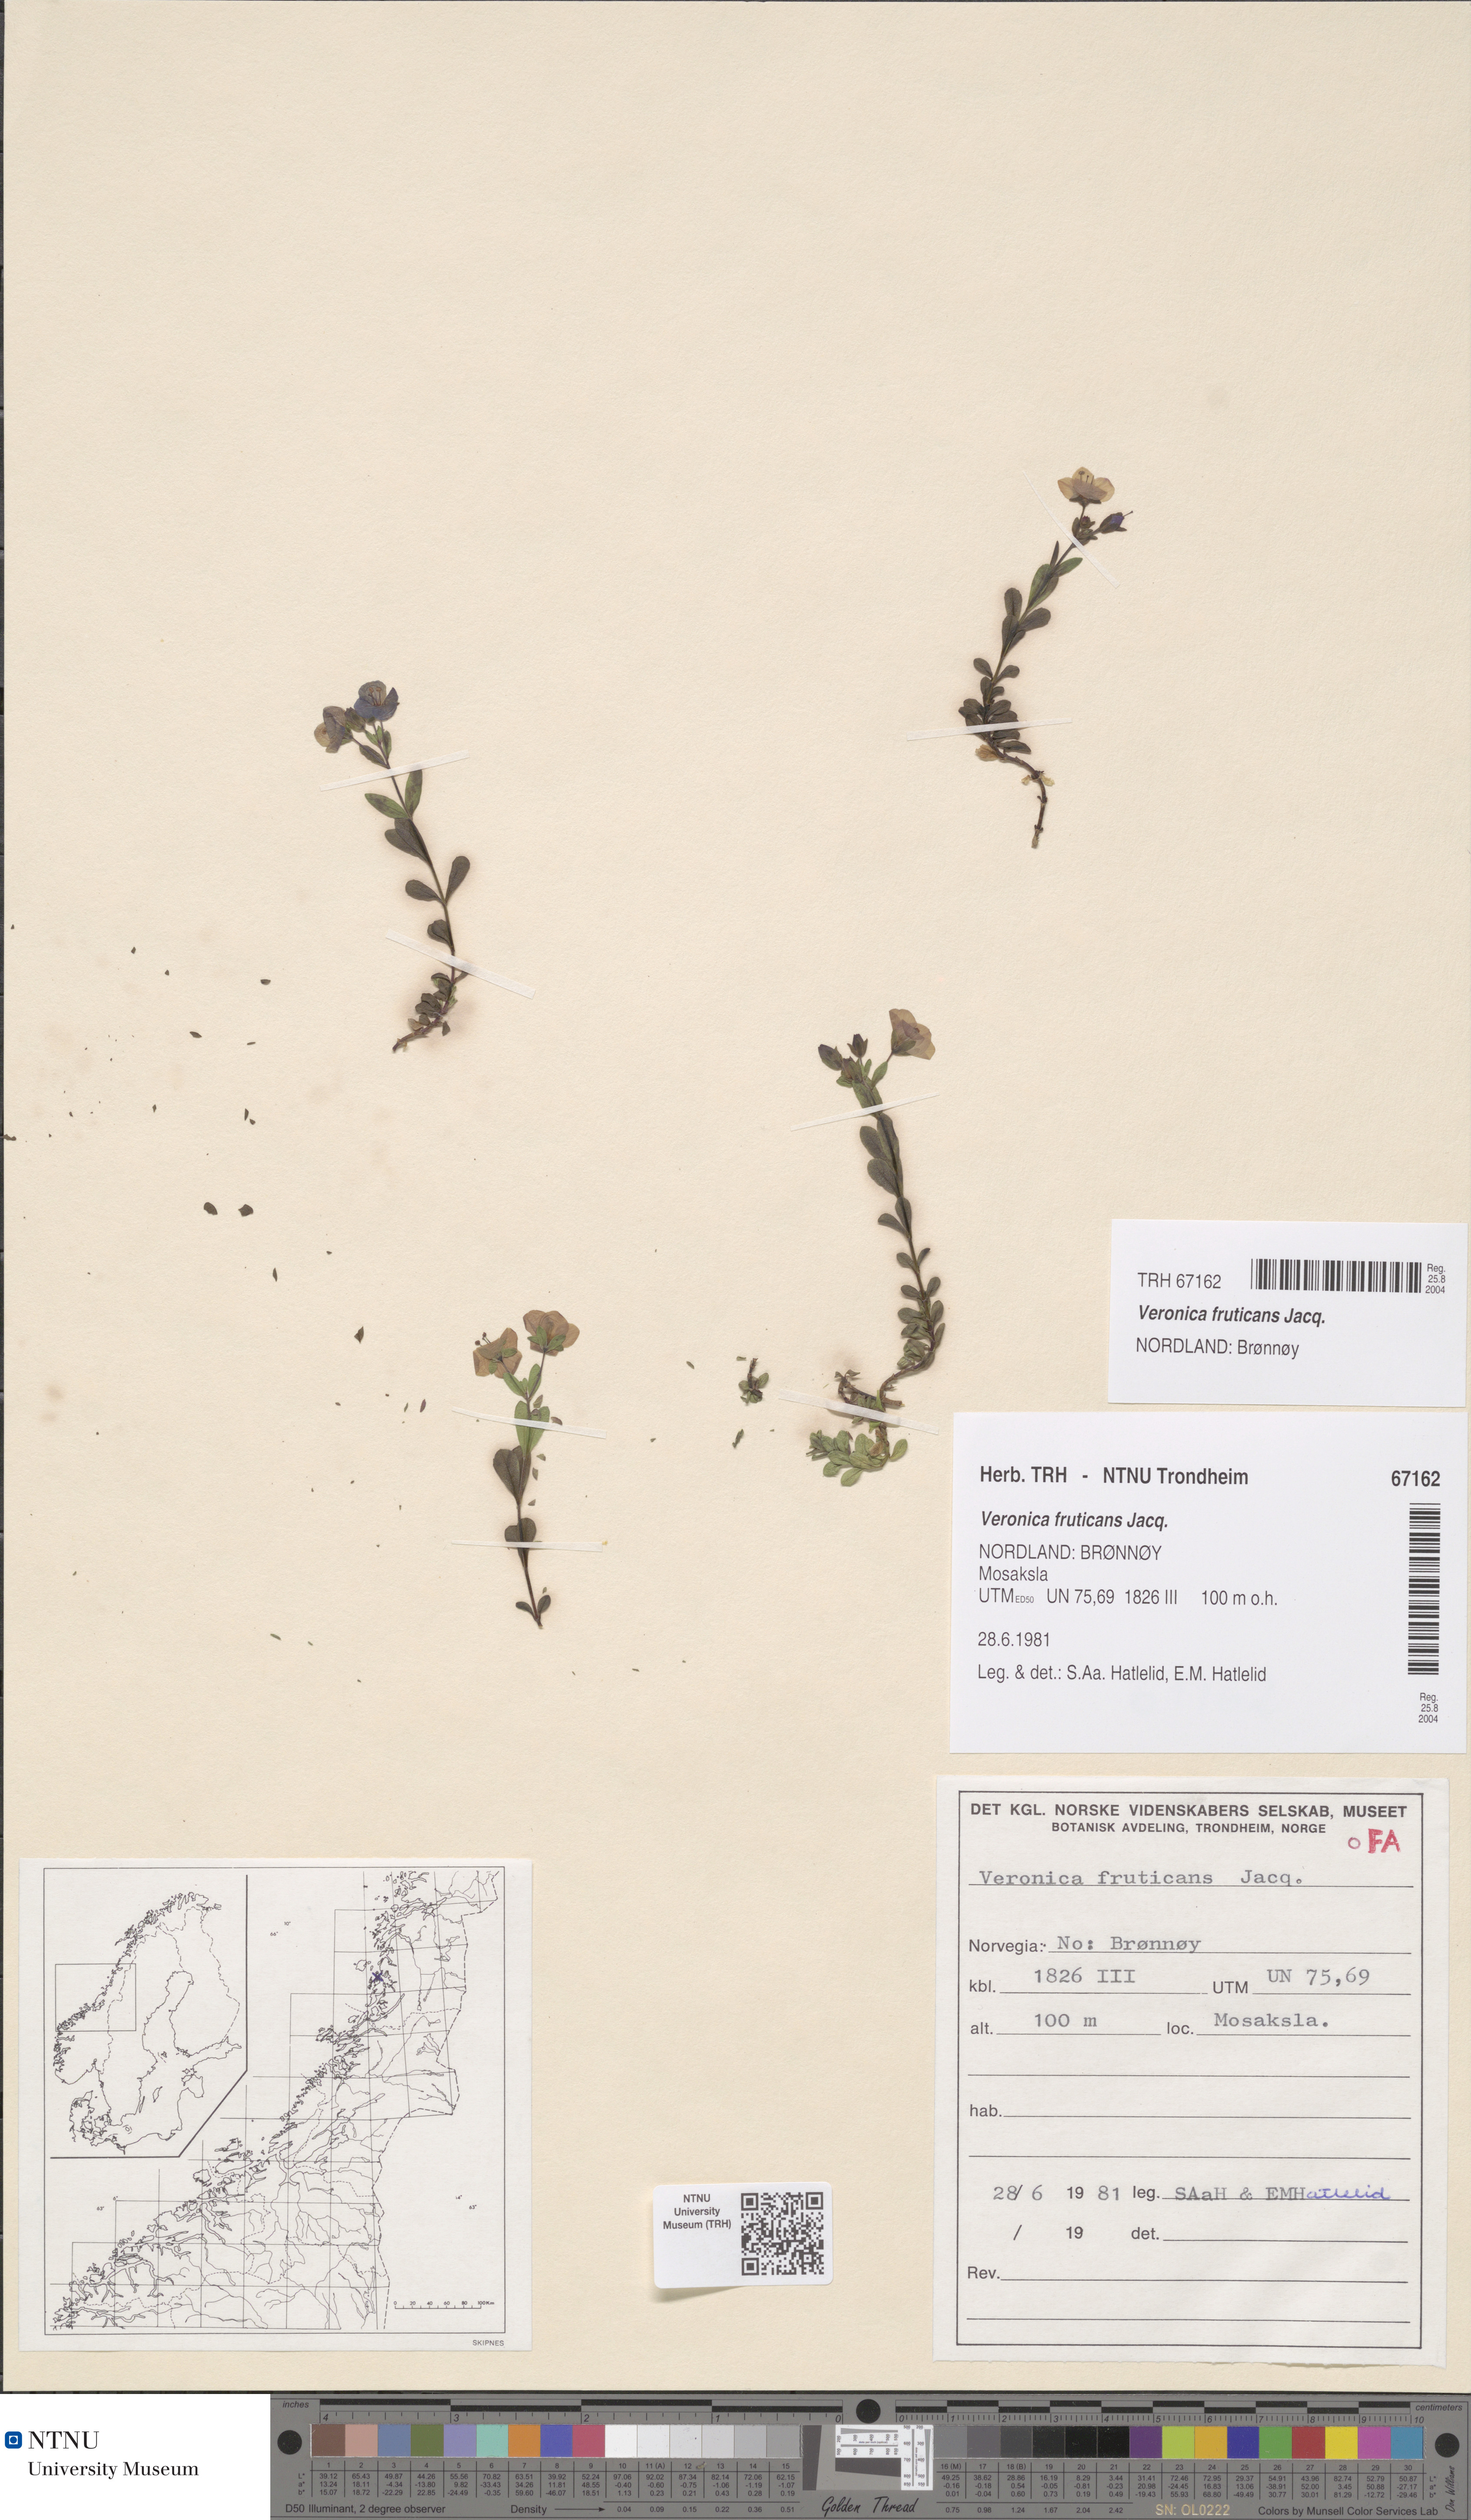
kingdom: Plantae
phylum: Tracheophyta
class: Magnoliopsida
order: Lamiales
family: Plantaginaceae
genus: Veronica
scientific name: Veronica fruticans
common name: Rock speedwell
